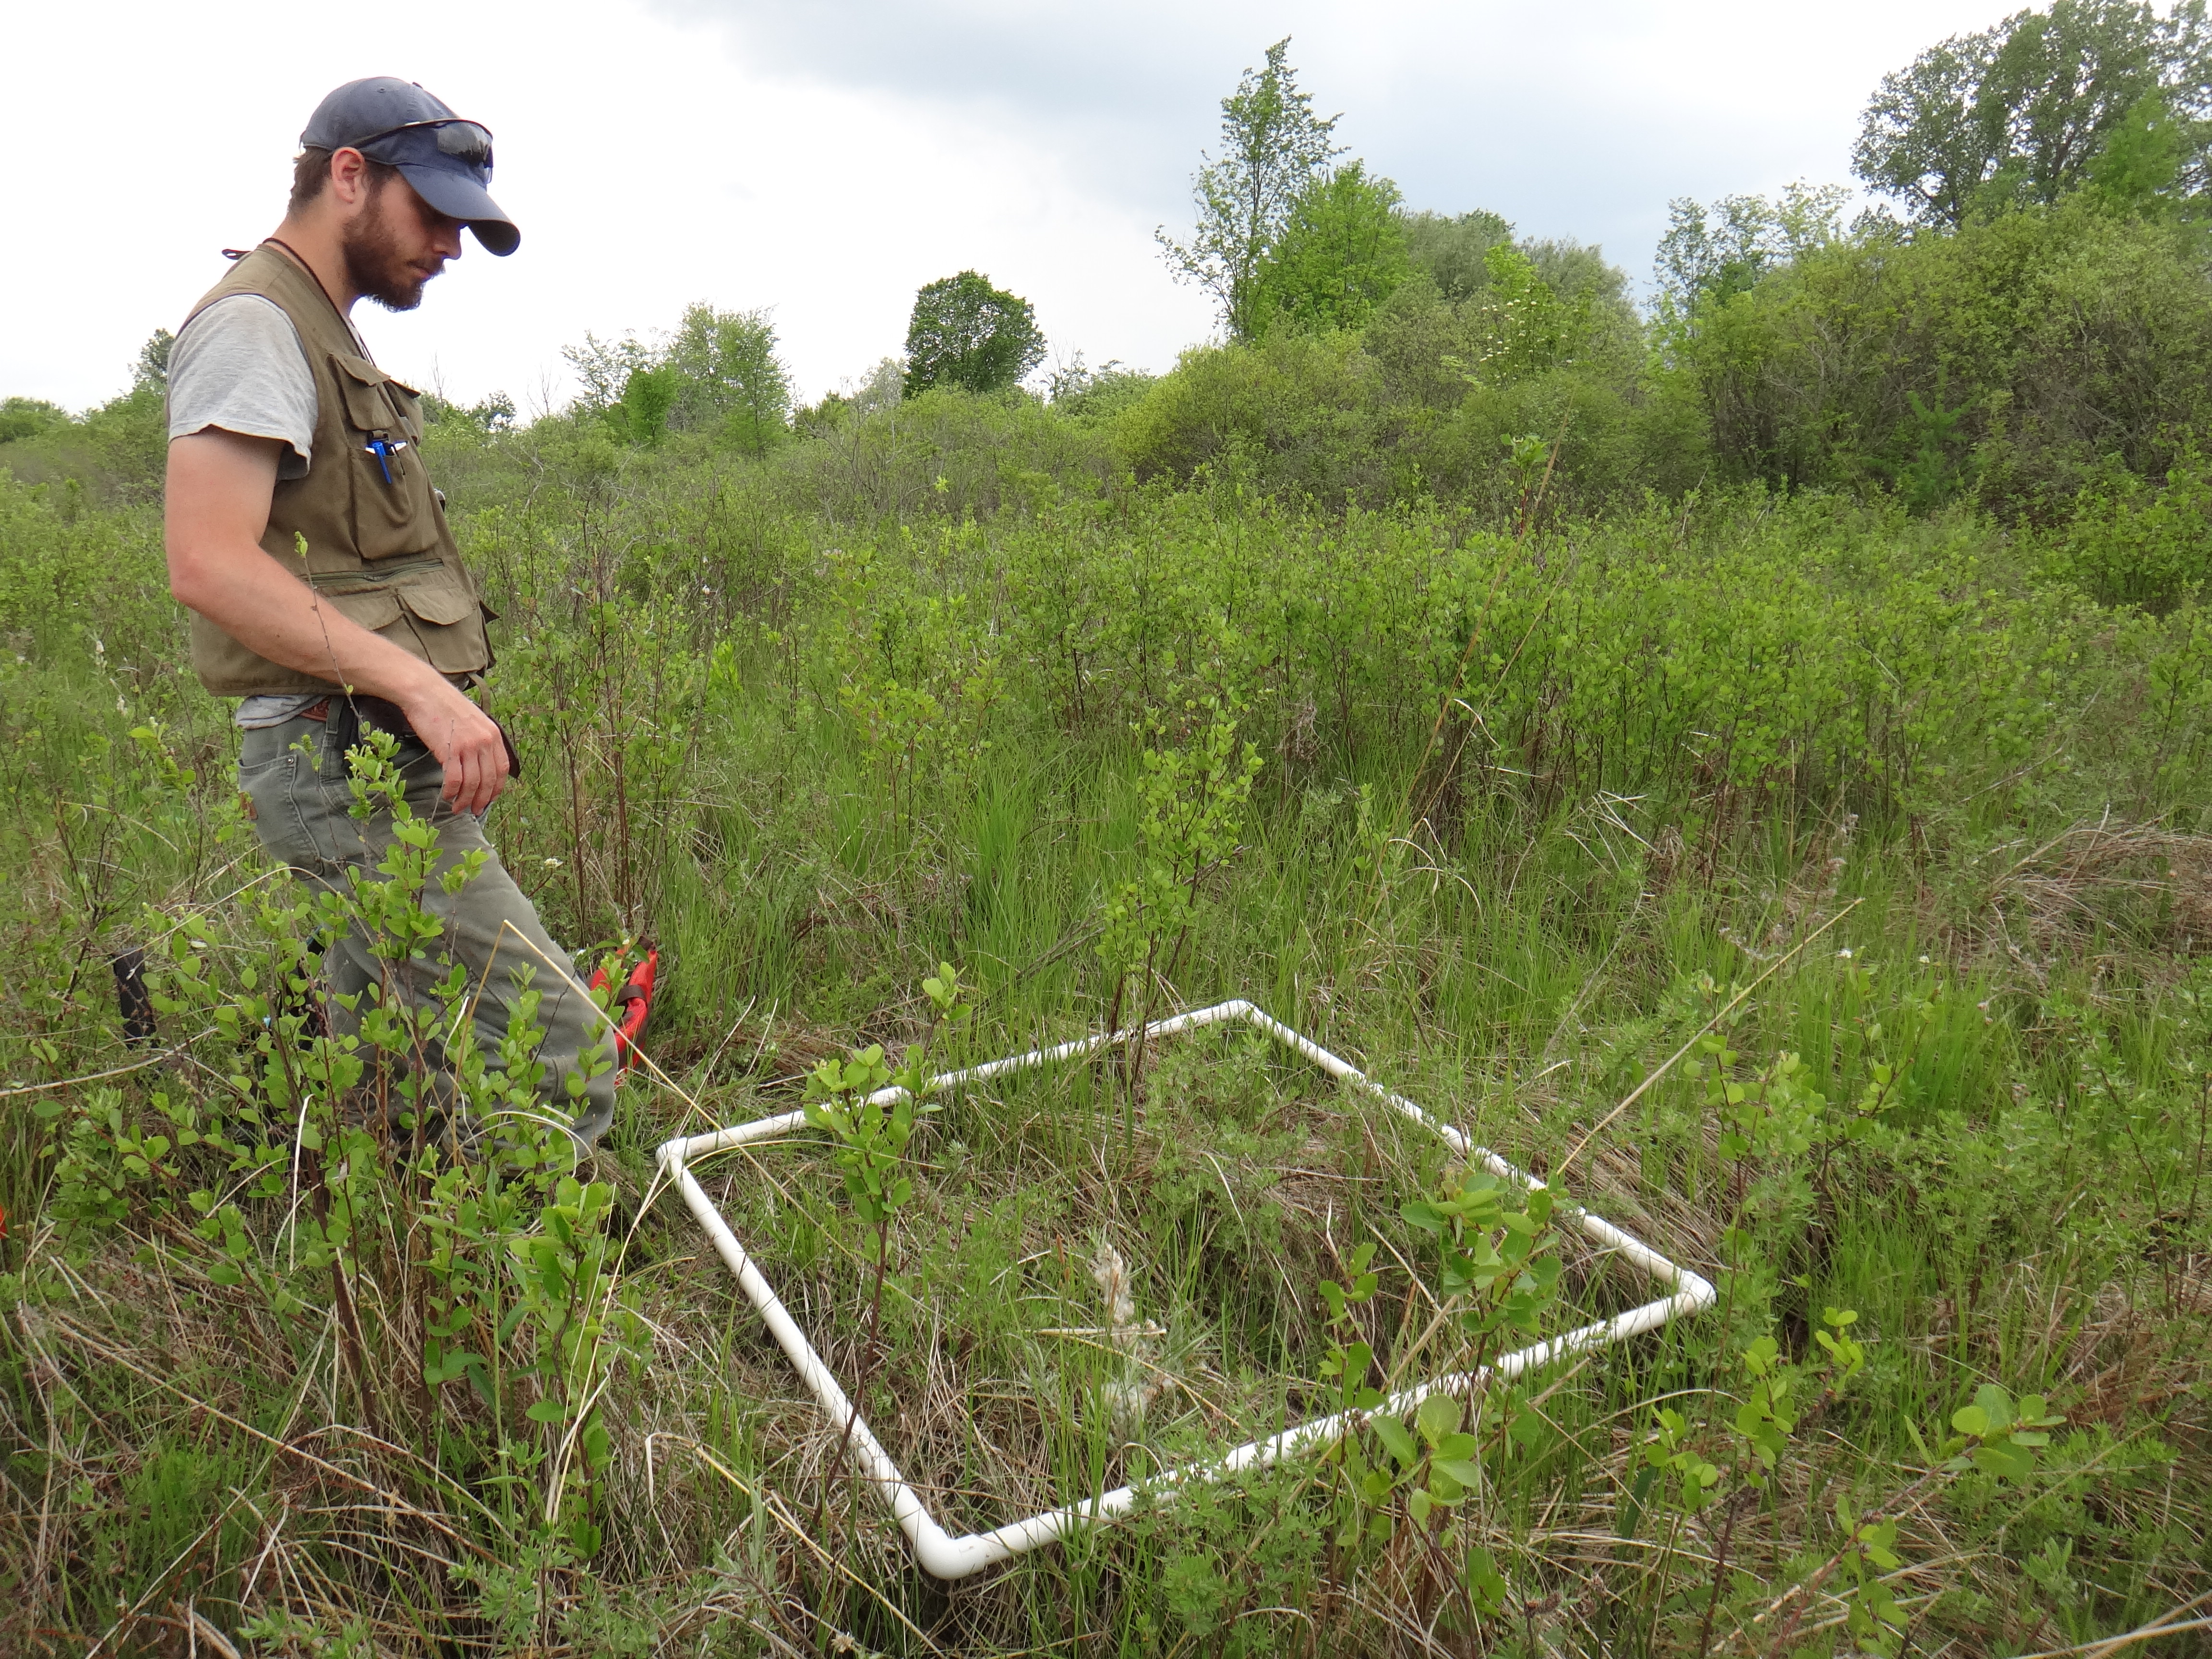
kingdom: Plantae
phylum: Tracheophyta
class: Magnoliopsida
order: Apiales
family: Apiaceae
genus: Oxypolis
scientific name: Oxypolis rigidior
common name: Cowbane
